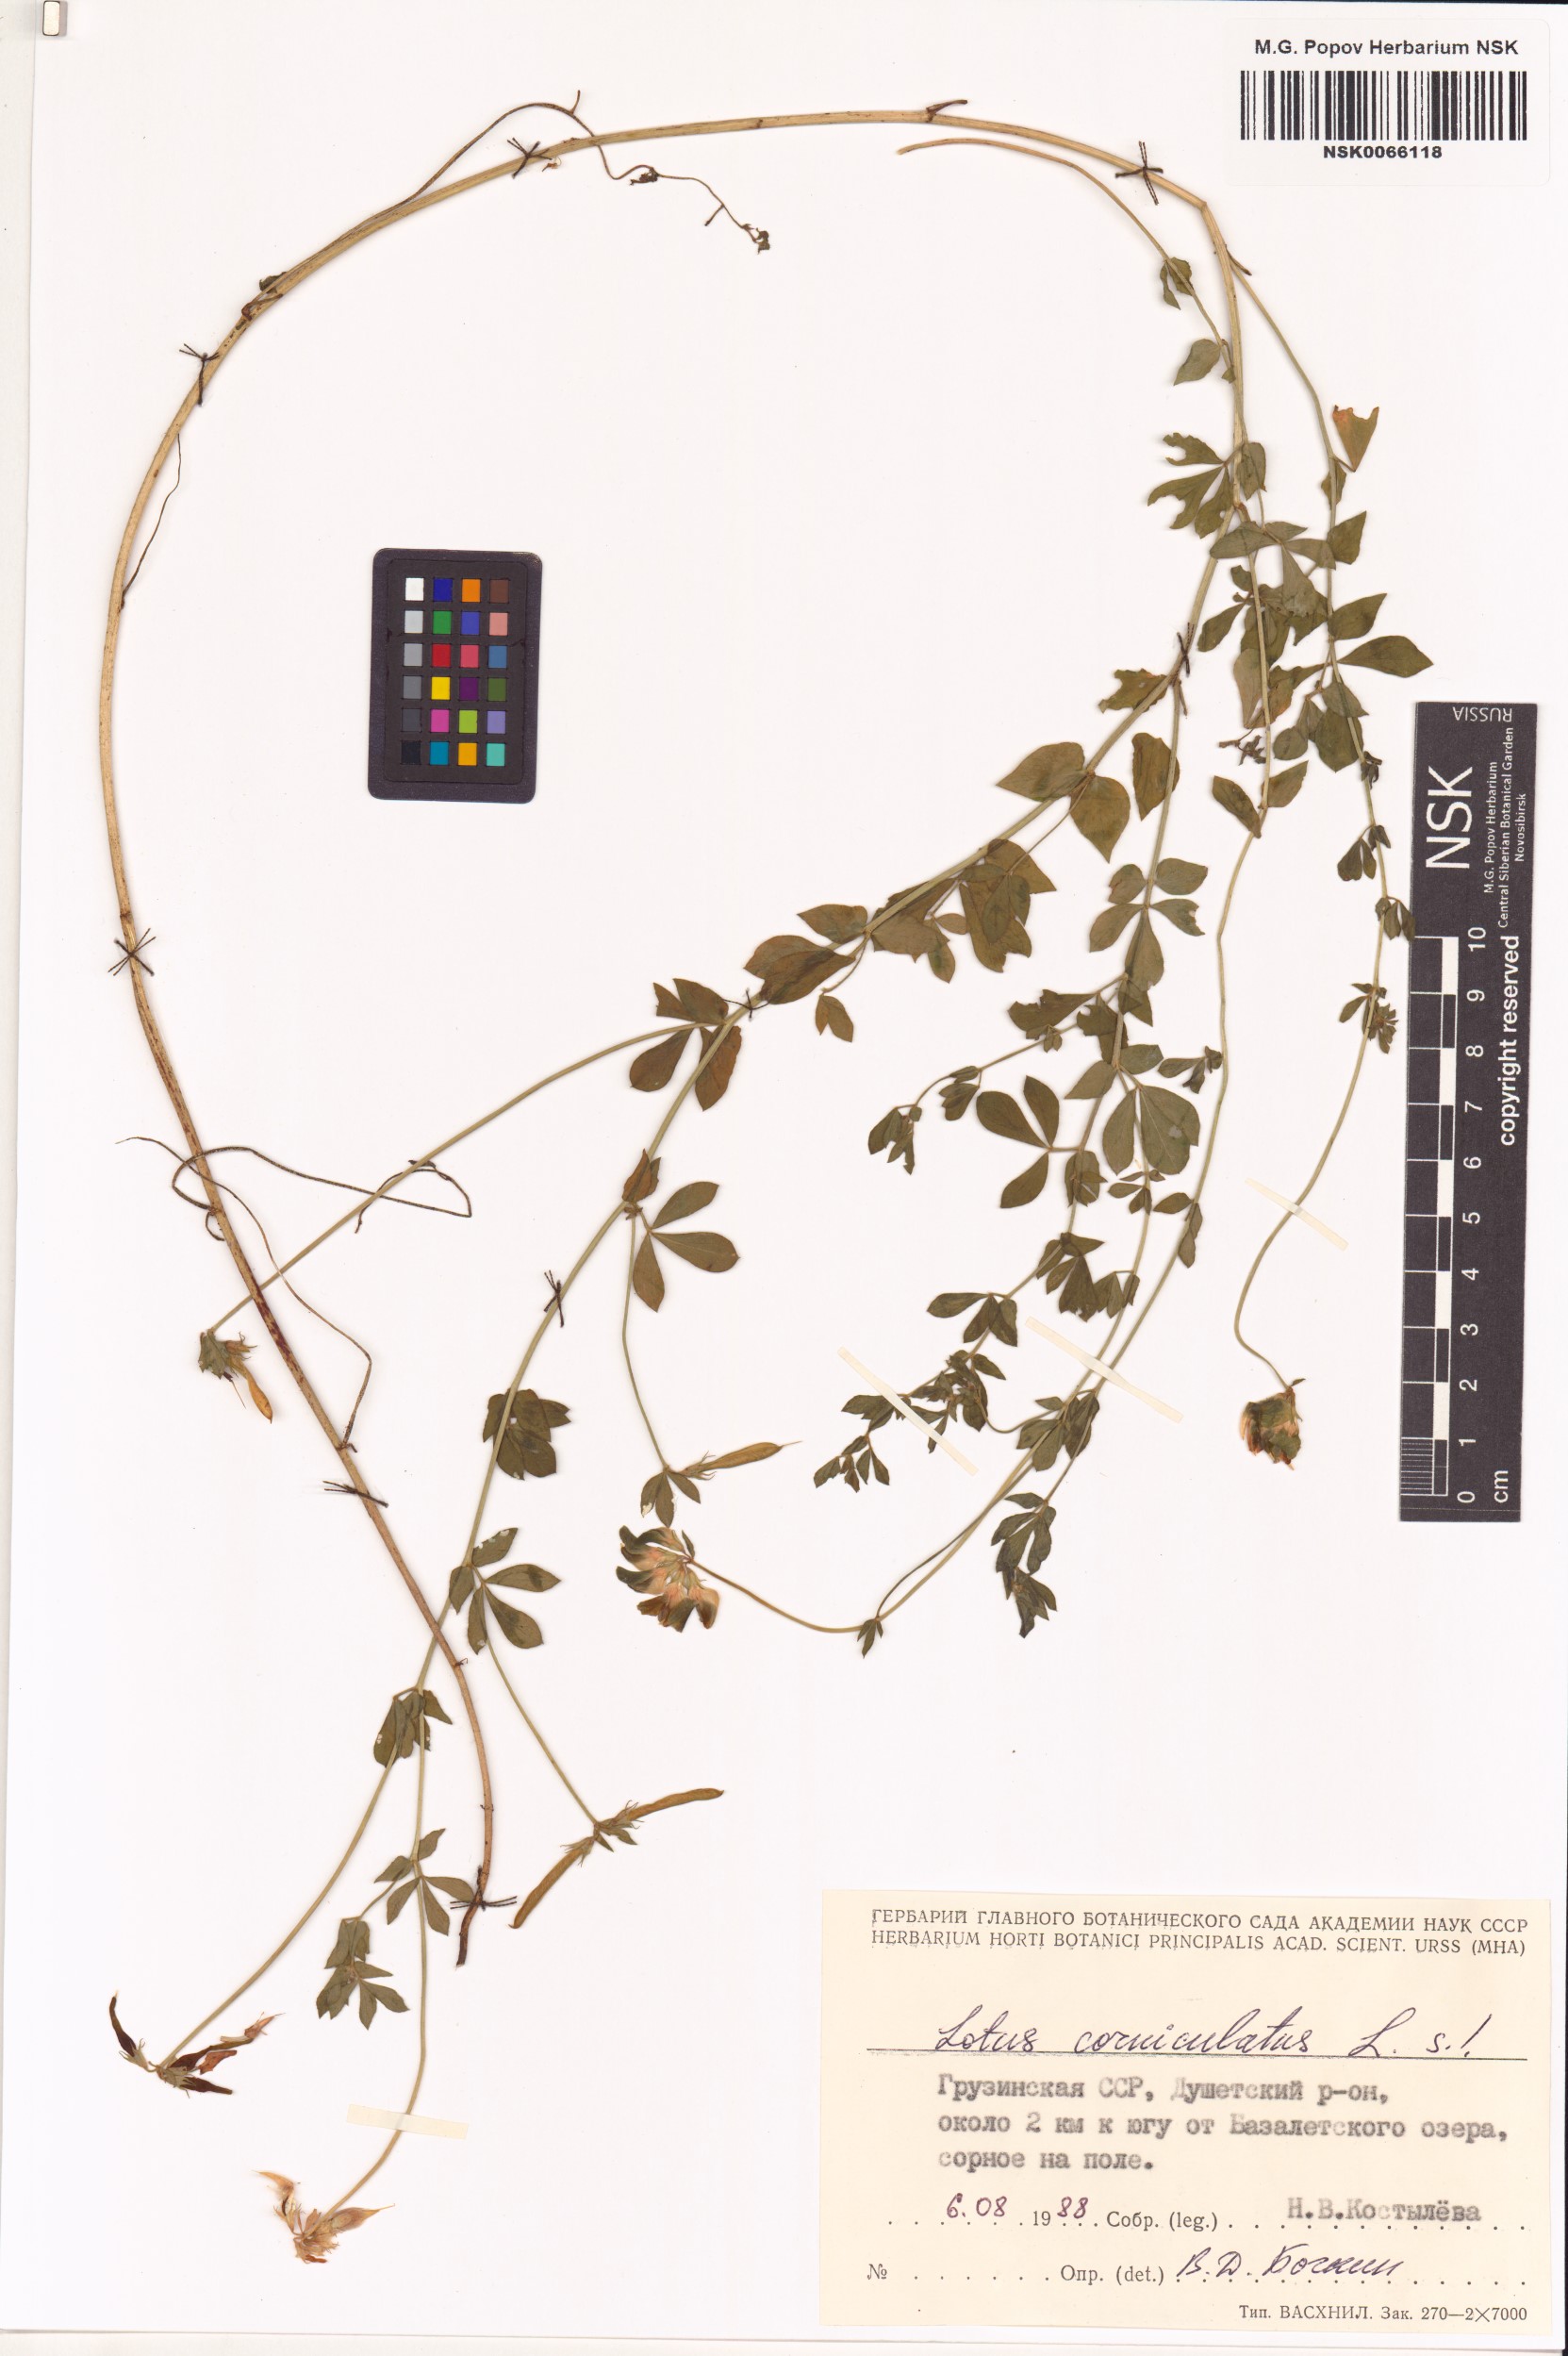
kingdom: Plantae
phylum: Tracheophyta
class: Magnoliopsida
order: Fabales
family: Fabaceae
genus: Lotus
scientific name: Lotus corniculatus
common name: Common bird's-foot-trefoil
